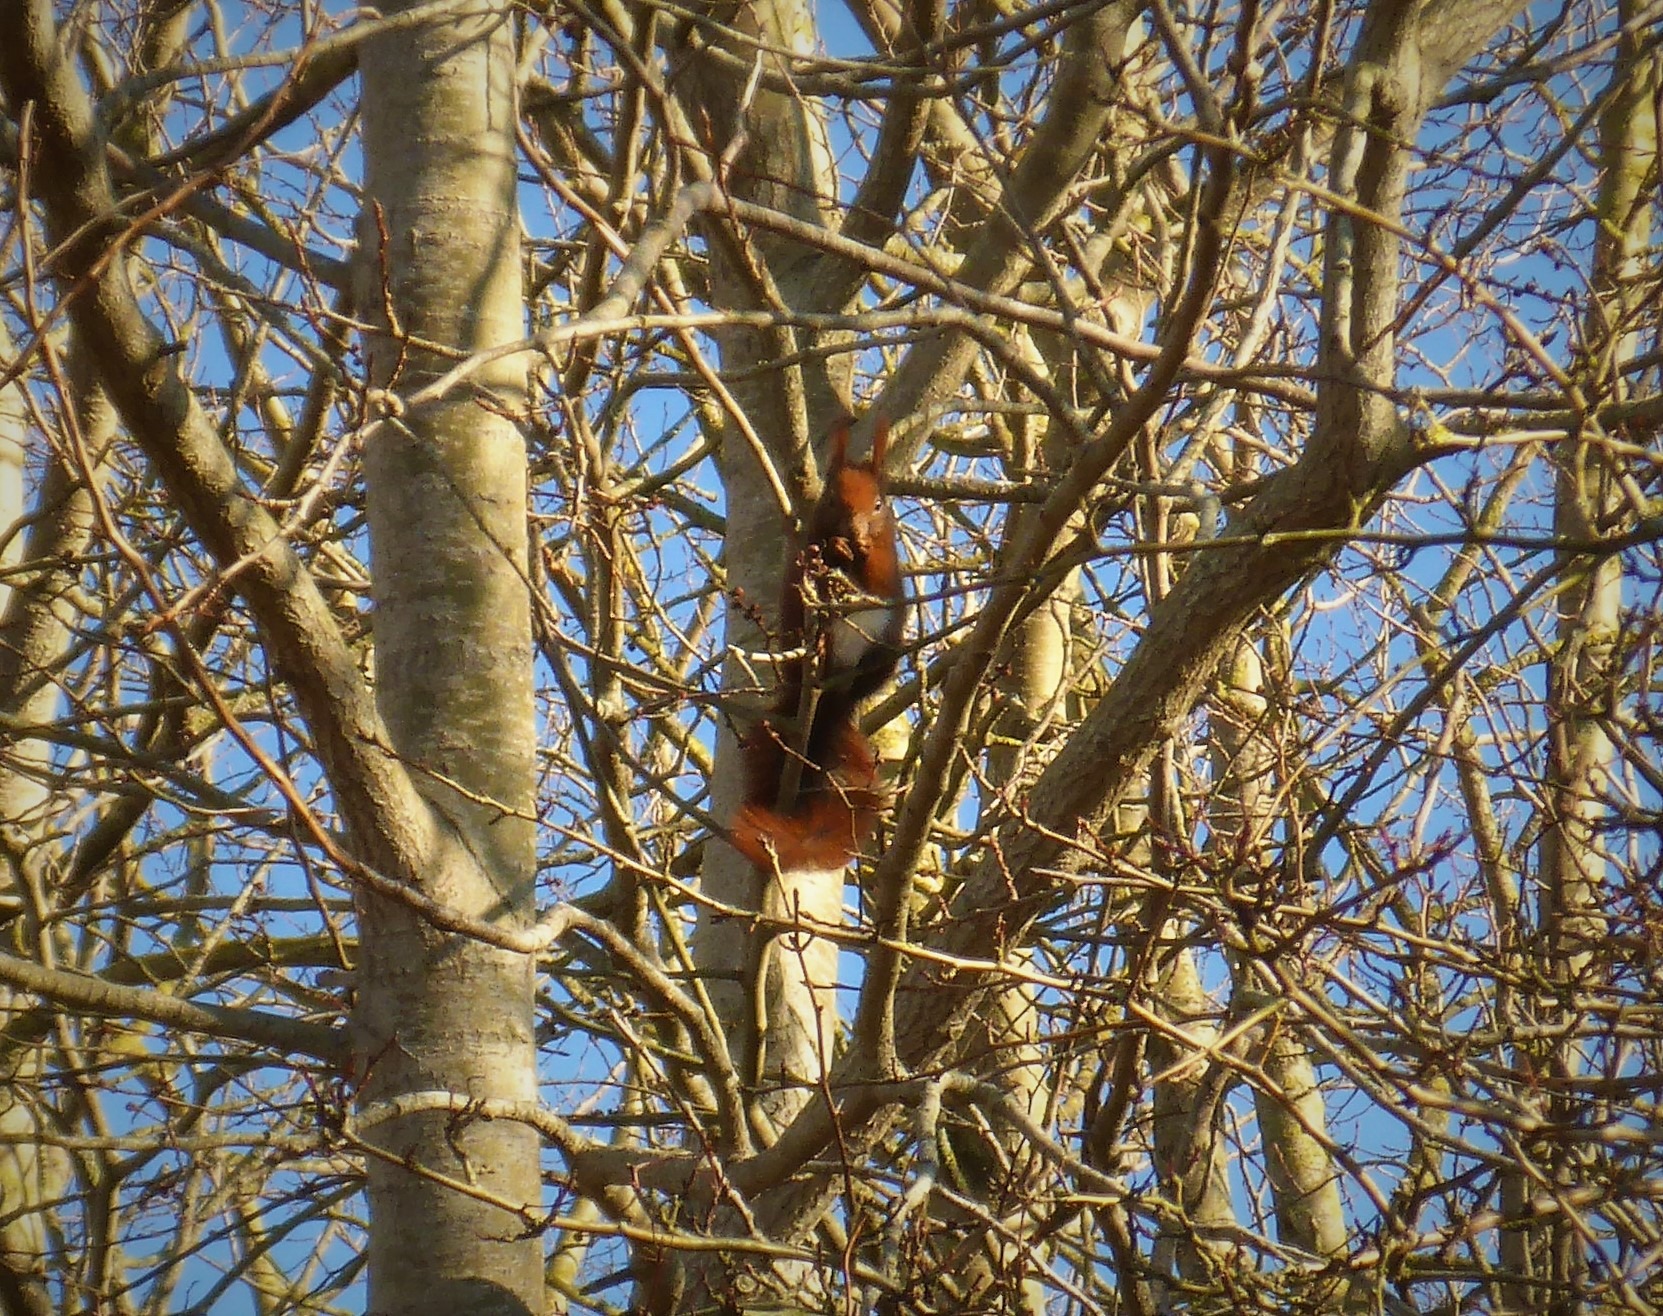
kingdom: Animalia
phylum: Chordata
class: Mammalia
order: Rodentia
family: Sciuridae
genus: Sciurus
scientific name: Sciurus vulgaris
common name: Egern
